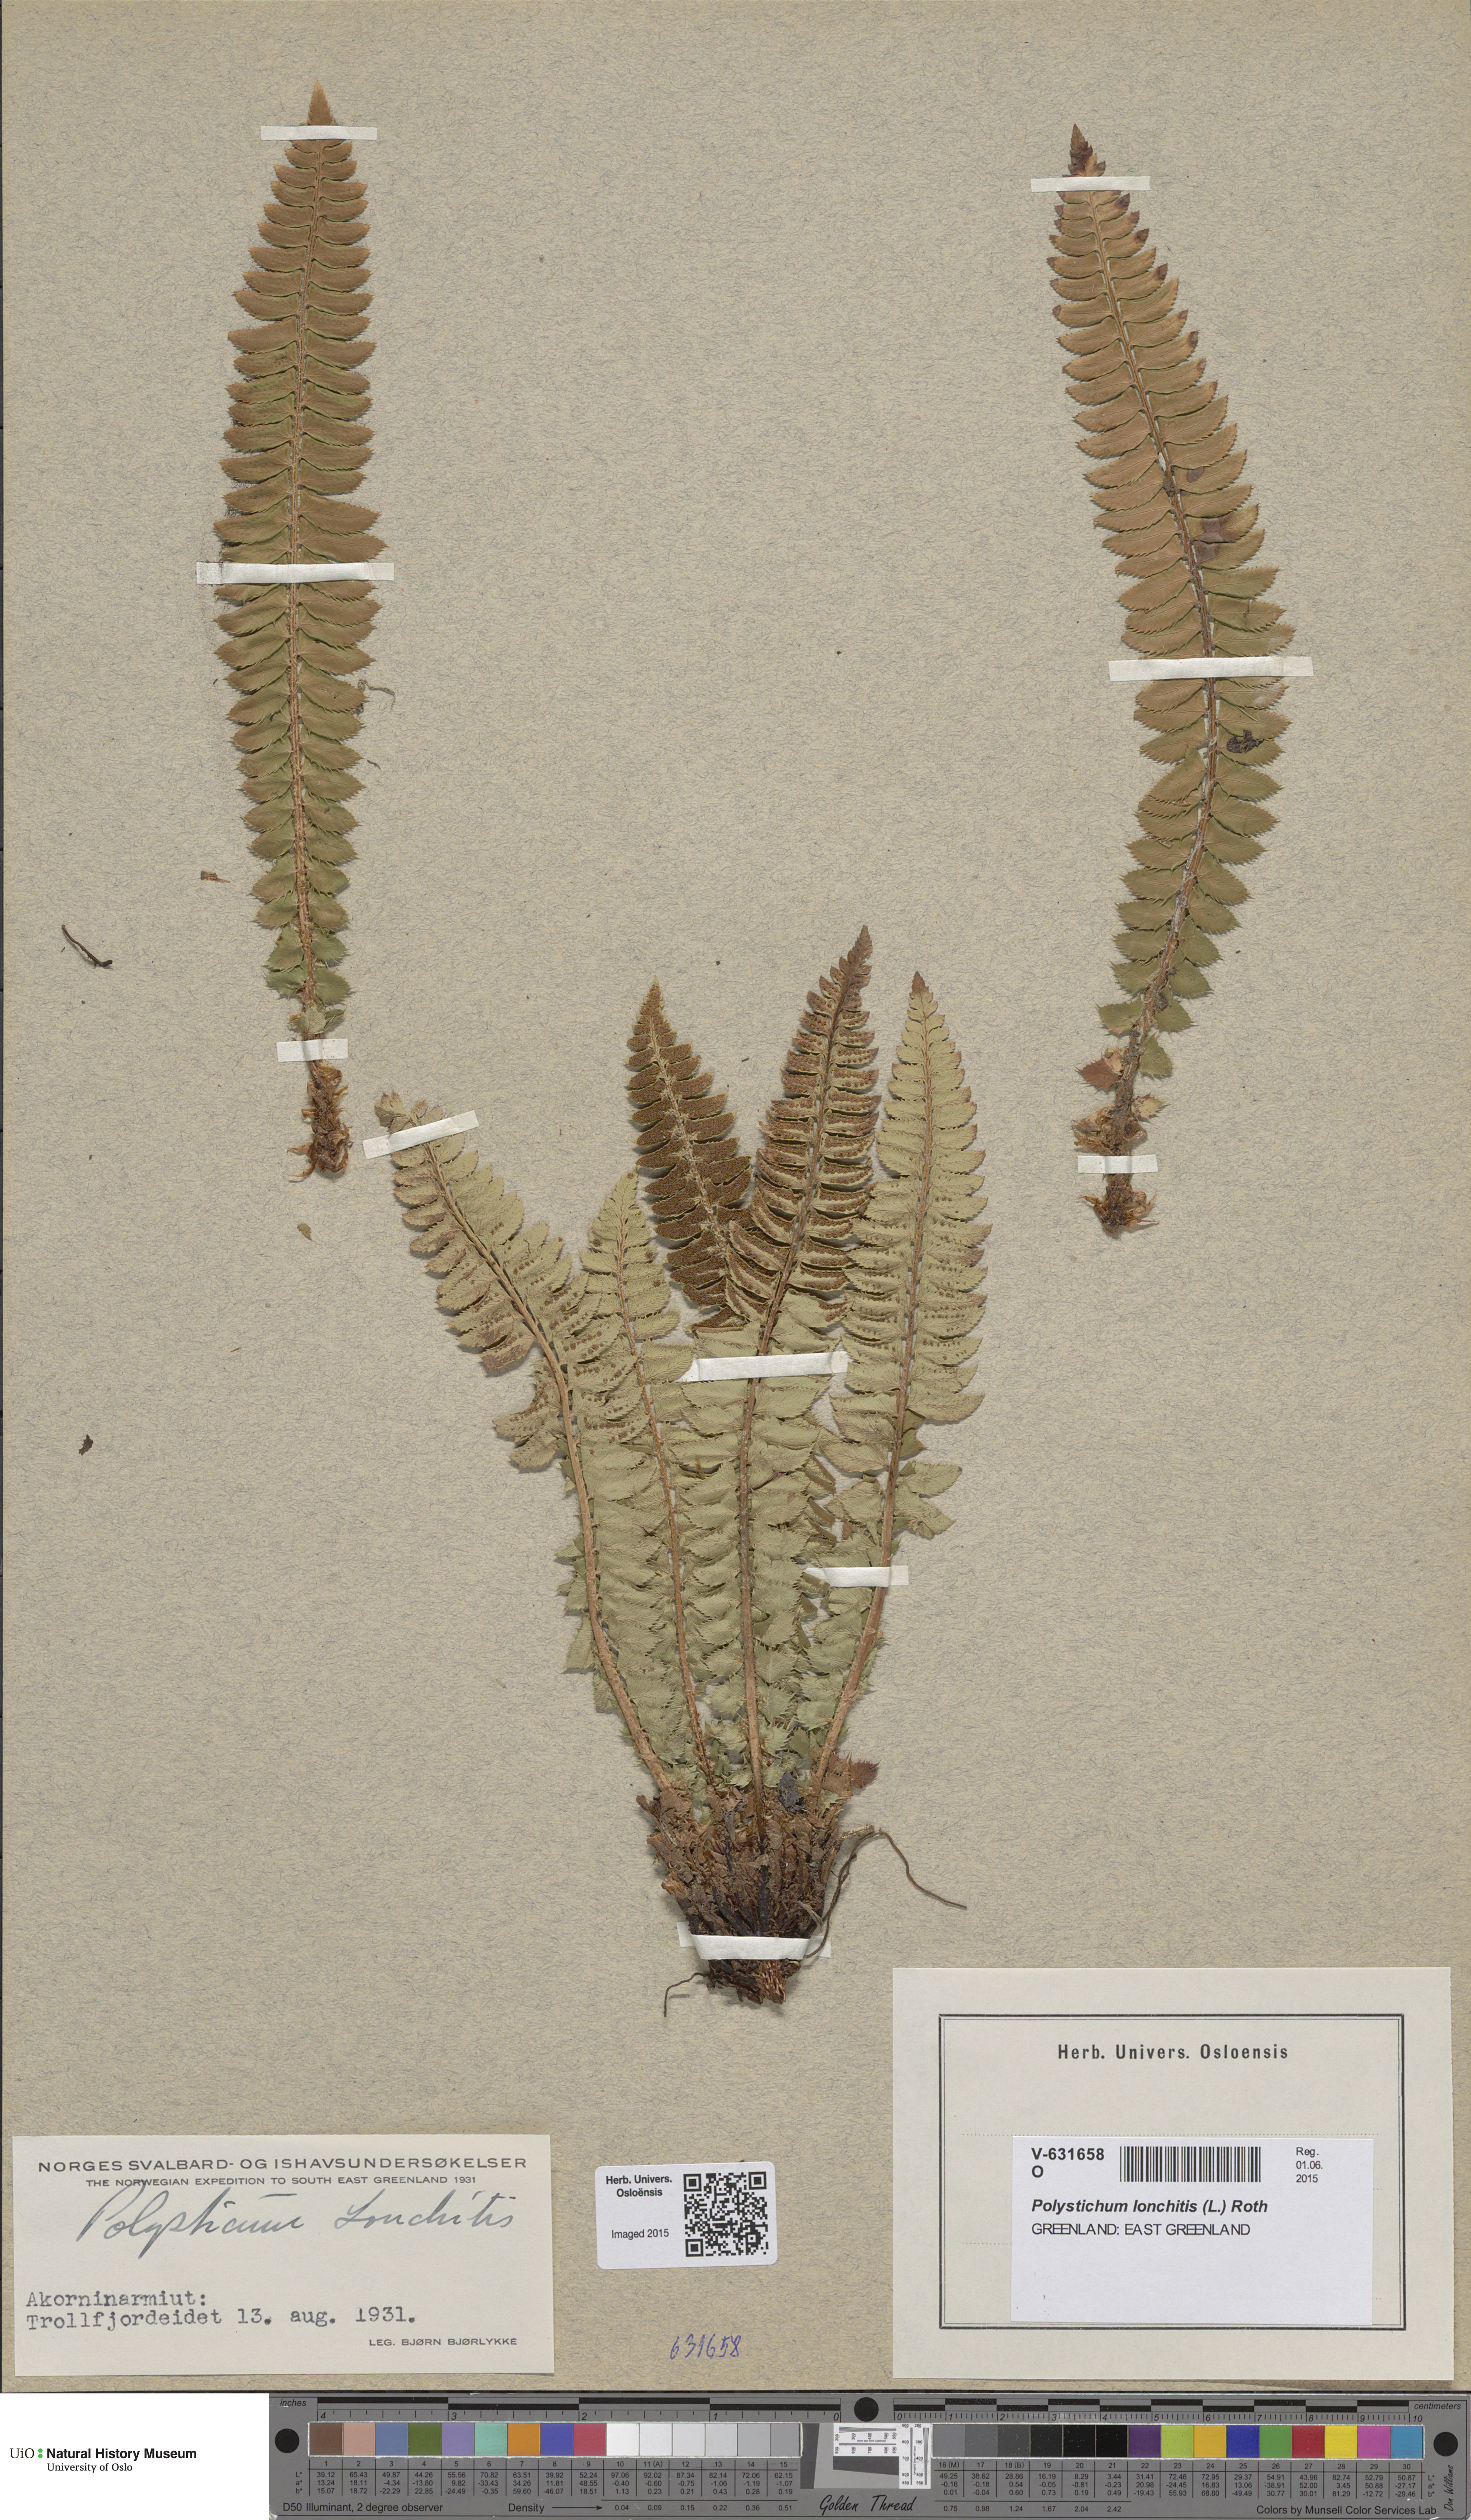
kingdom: Plantae
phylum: Tracheophyta
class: Polypodiopsida
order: Polypodiales
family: Dryopteridaceae
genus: Polystichum
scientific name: Polystichum lonchitis
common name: Holly fern
